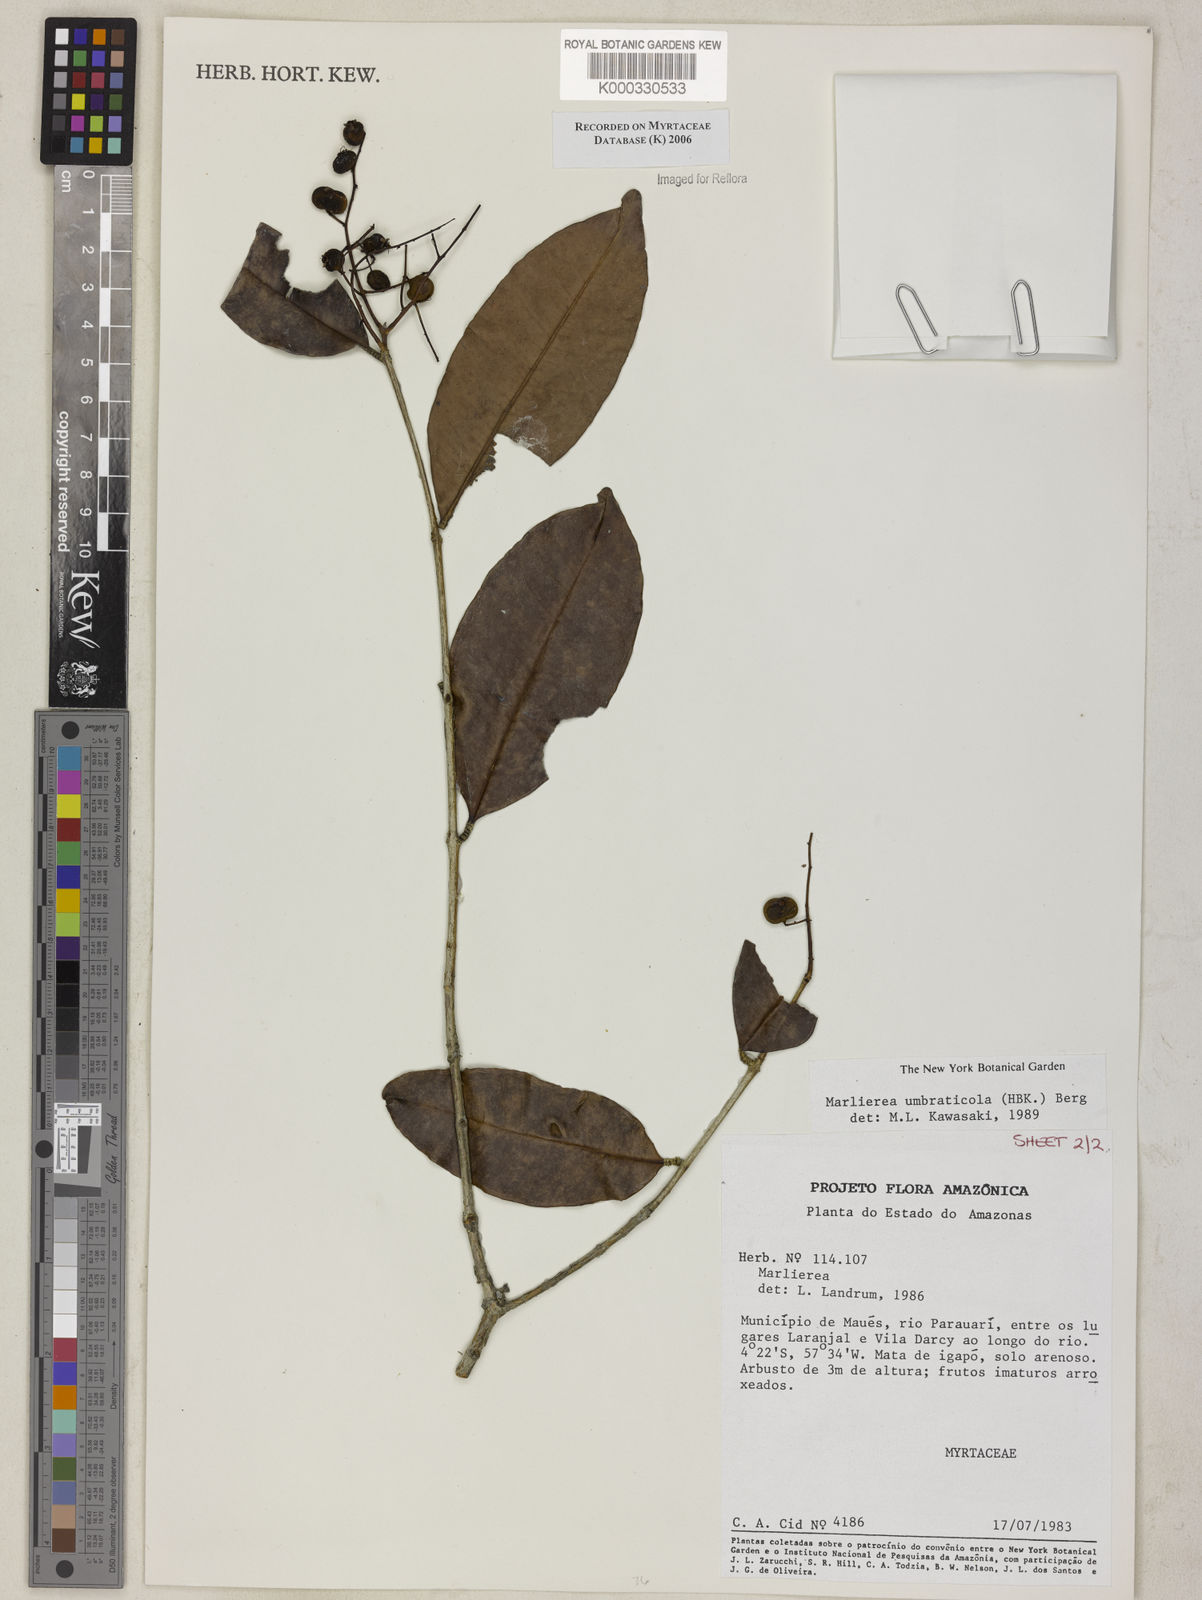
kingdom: Plantae
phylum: Tracheophyta
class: Magnoliopsida
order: Myrtales
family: Myrtaceae
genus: Myrcia
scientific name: Myrcia umbraticola
